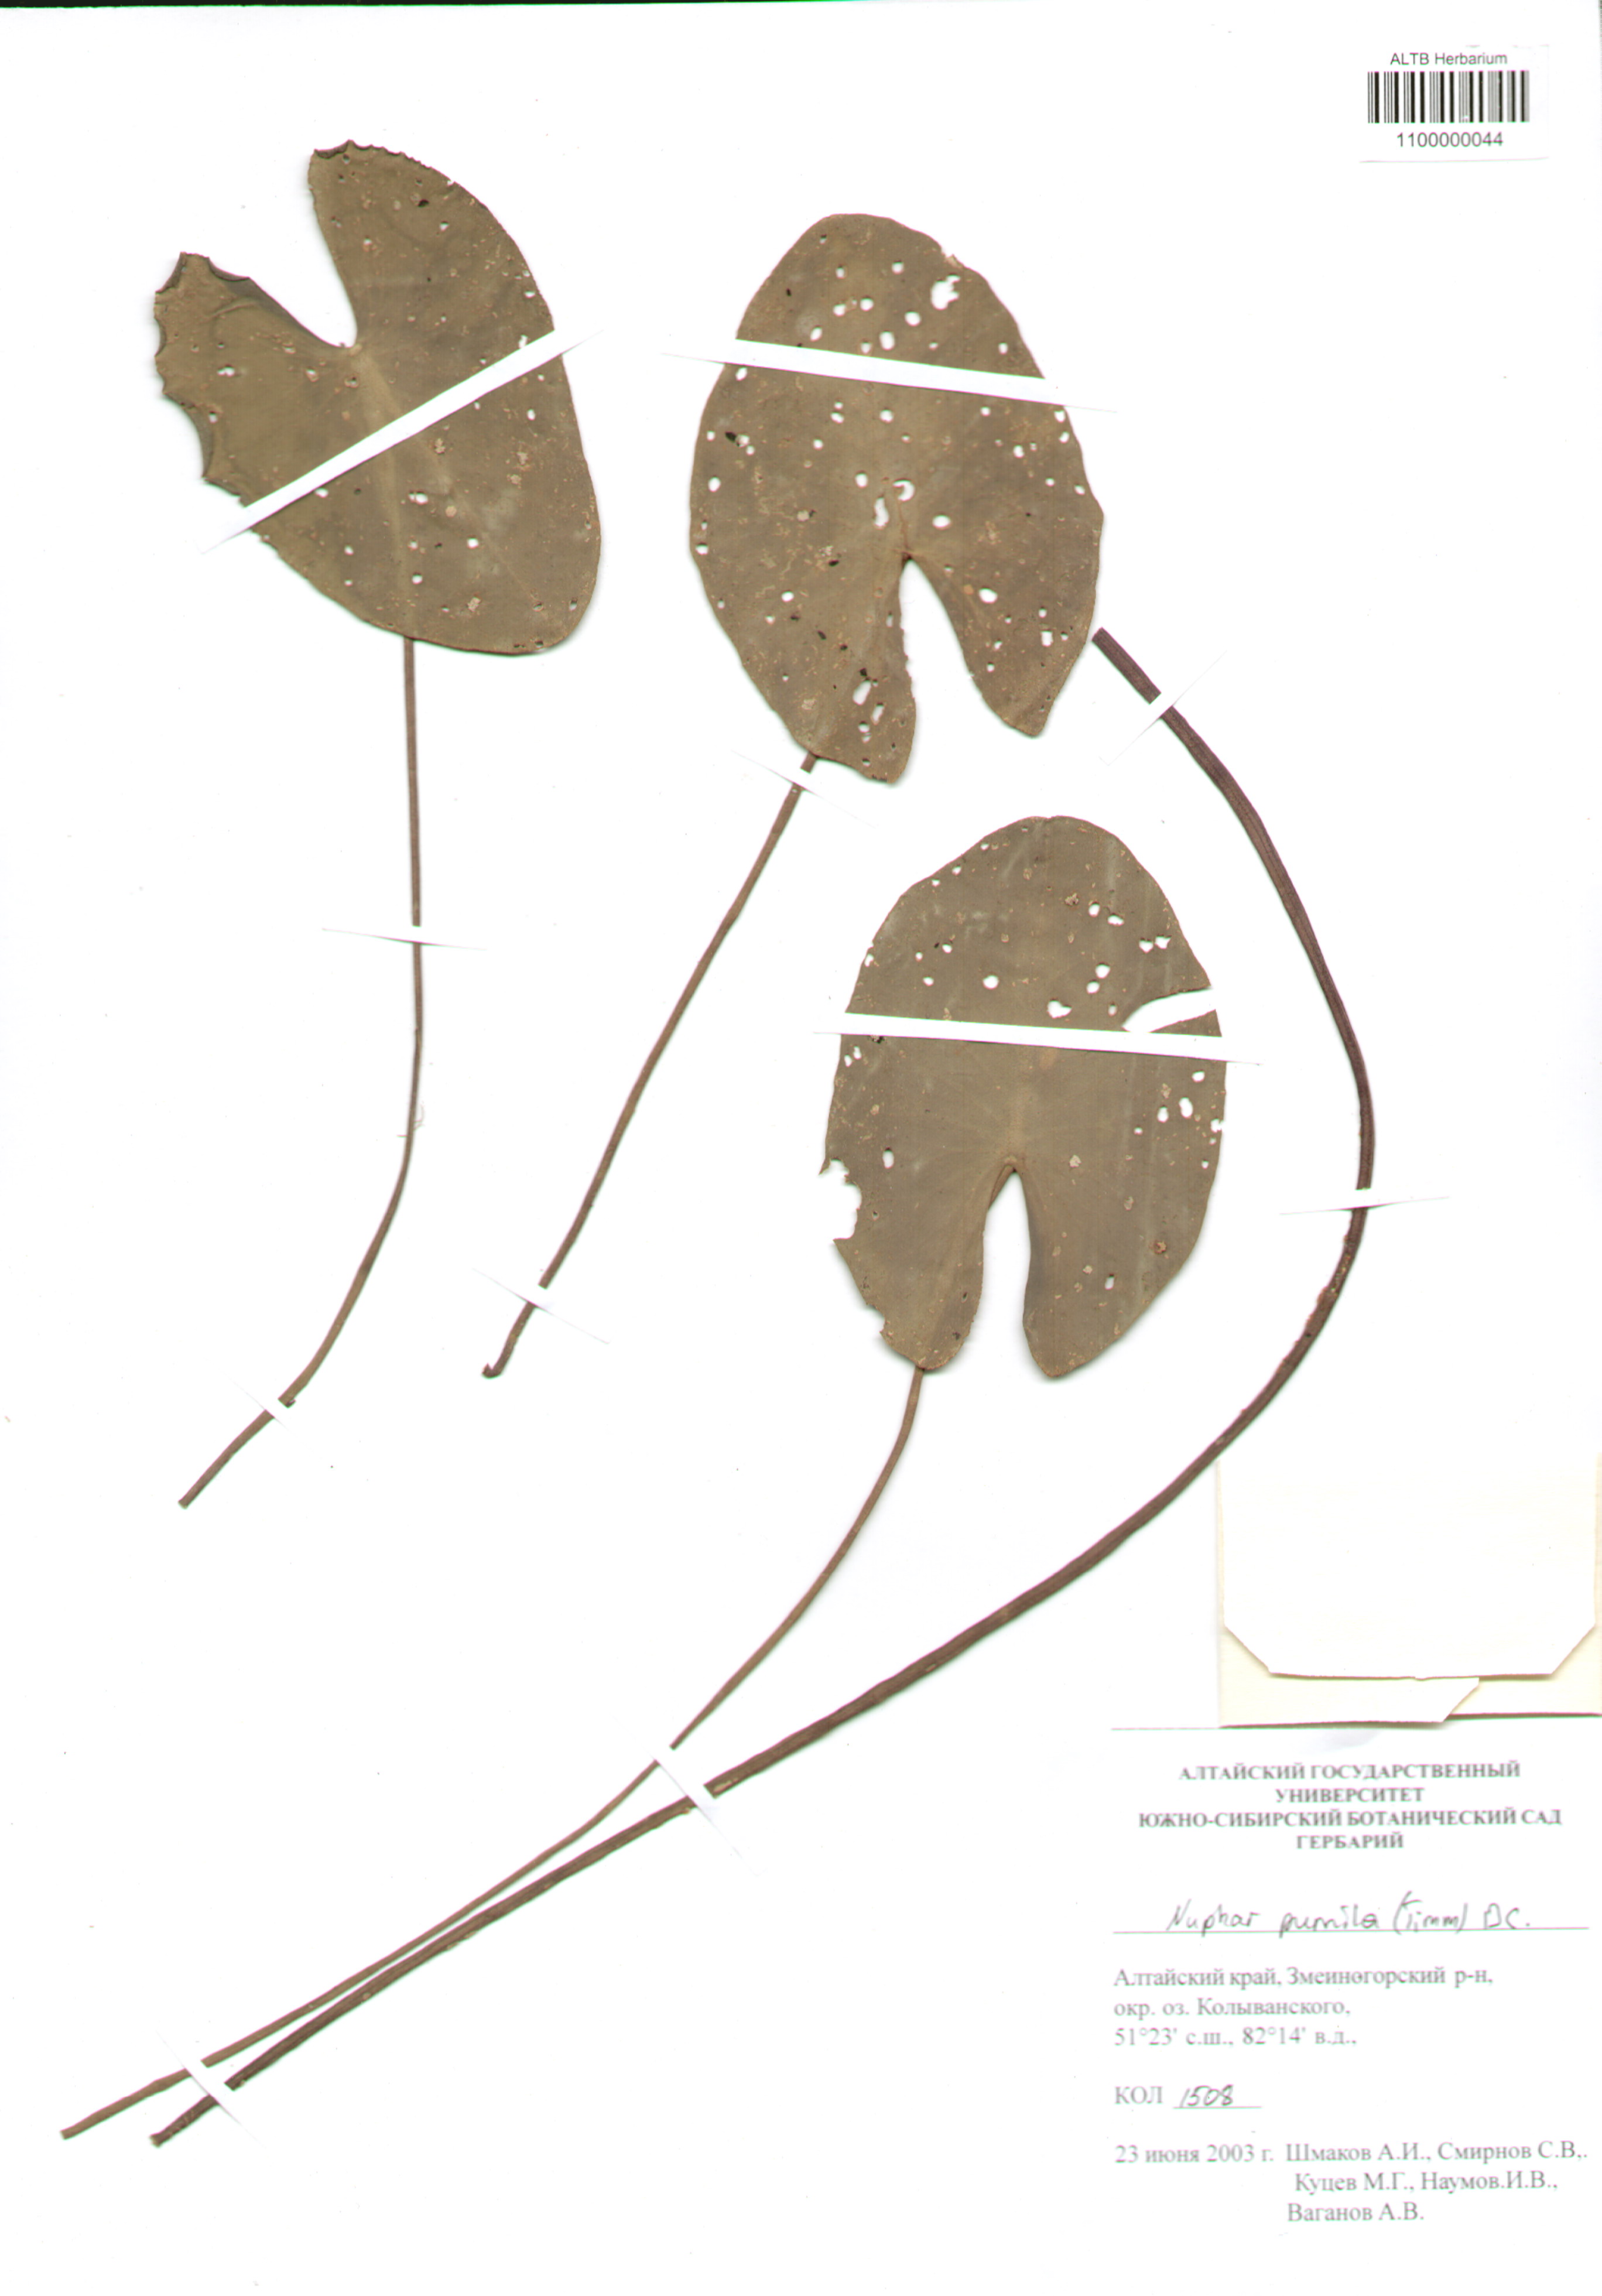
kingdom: Plantae
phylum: Tracheophyta
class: Magnoliopsida
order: Nymphaeales
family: Nymphaeaceae
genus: Nuphar
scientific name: Nuphar pumila
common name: Least water-lily
